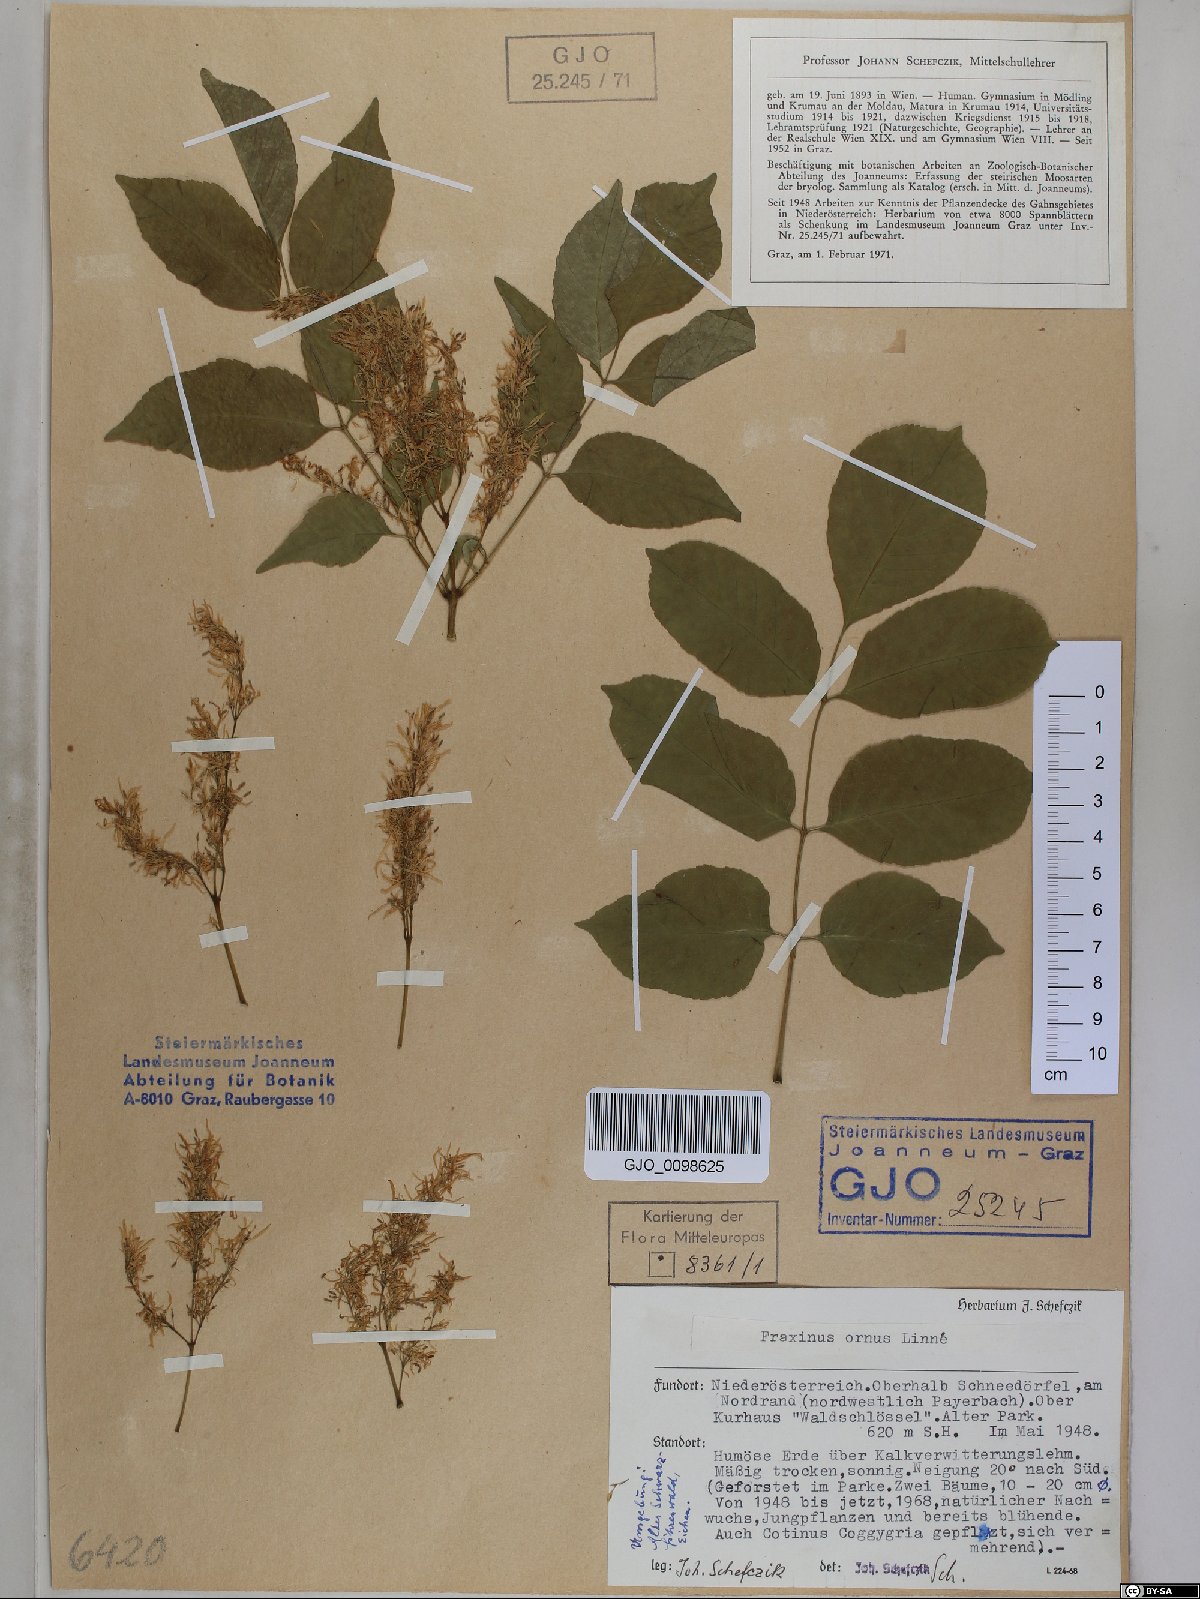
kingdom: Plantae
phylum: Tracheophyta
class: Magnoliopsida
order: Lamiales
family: Oleaceae
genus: Fraxinus
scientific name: Fraxinus ornus
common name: Manna ash
